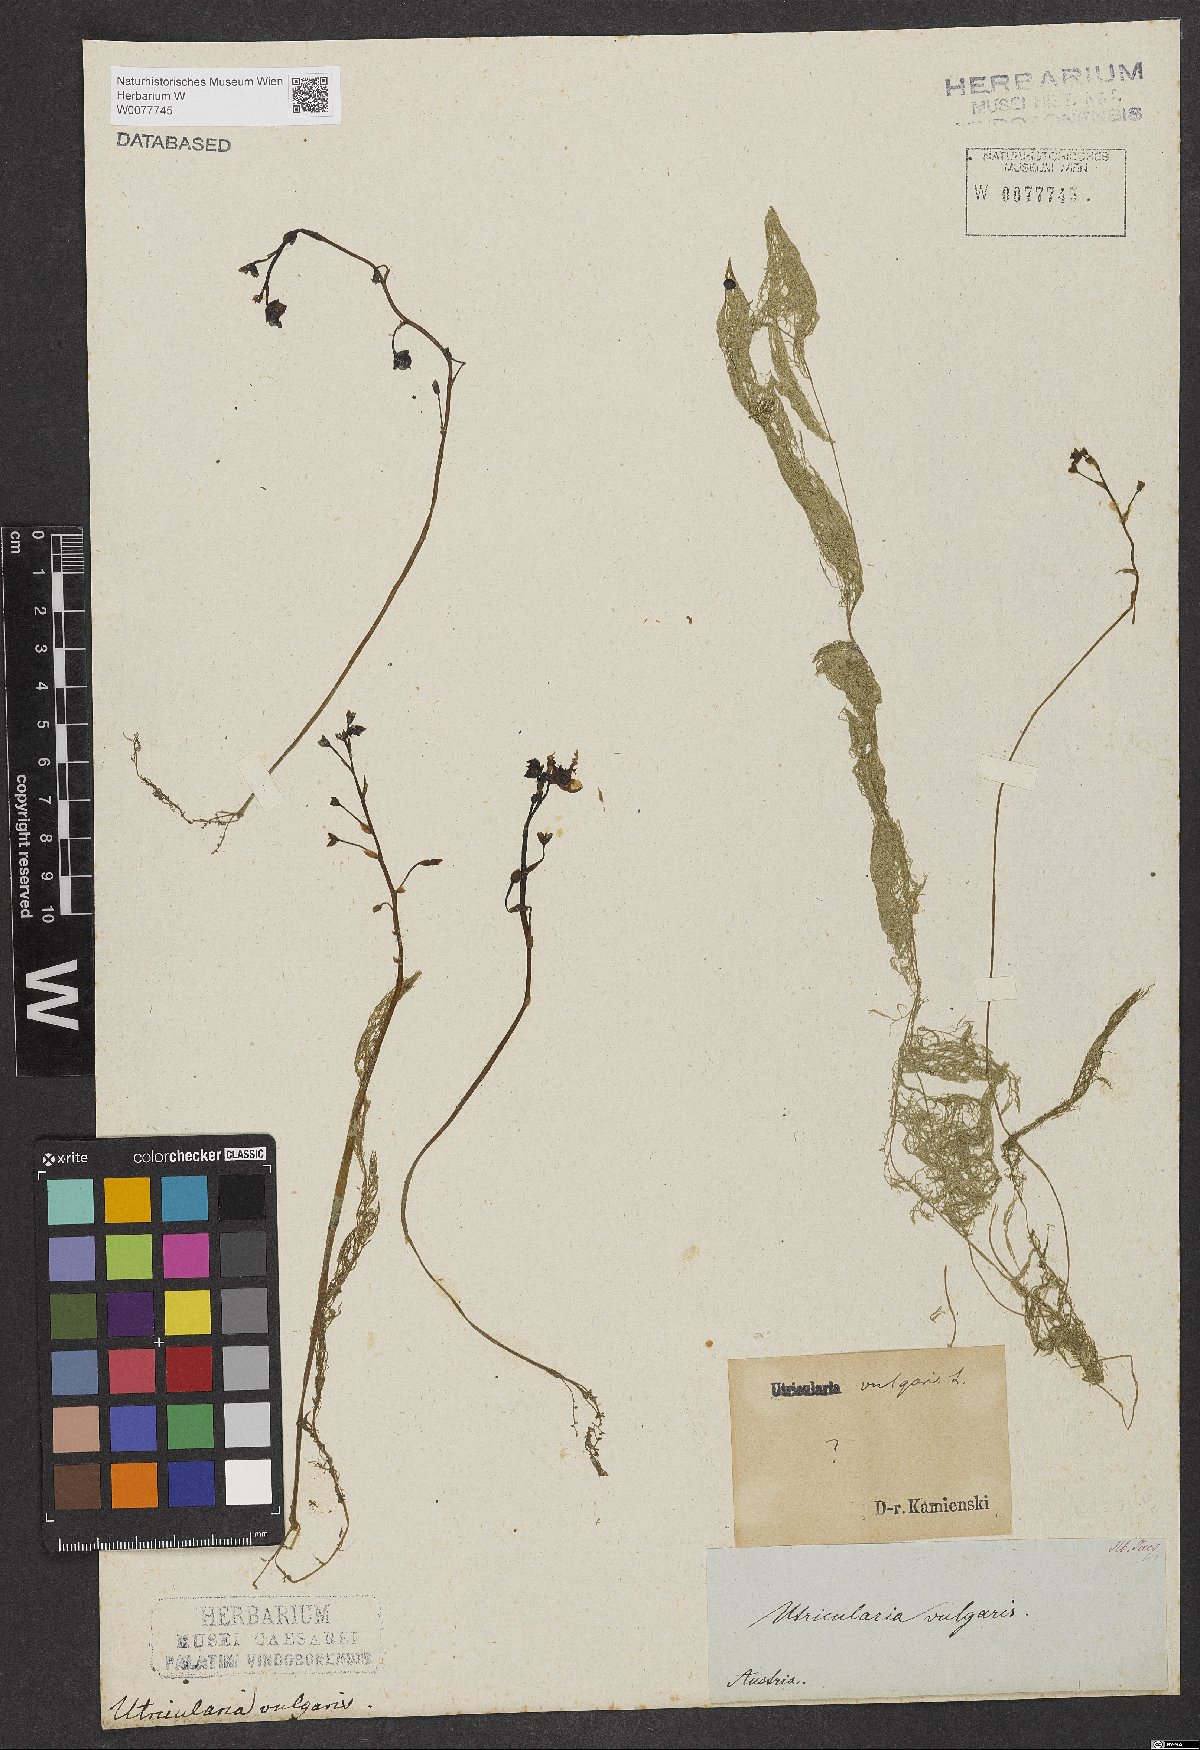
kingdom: Plantae
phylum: Tracheophyta
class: Magnoliopsida
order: Lamiales
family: Lentibulariaceae
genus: Utricularia
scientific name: Utricularia vulgaris
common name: Greater bladderwort
